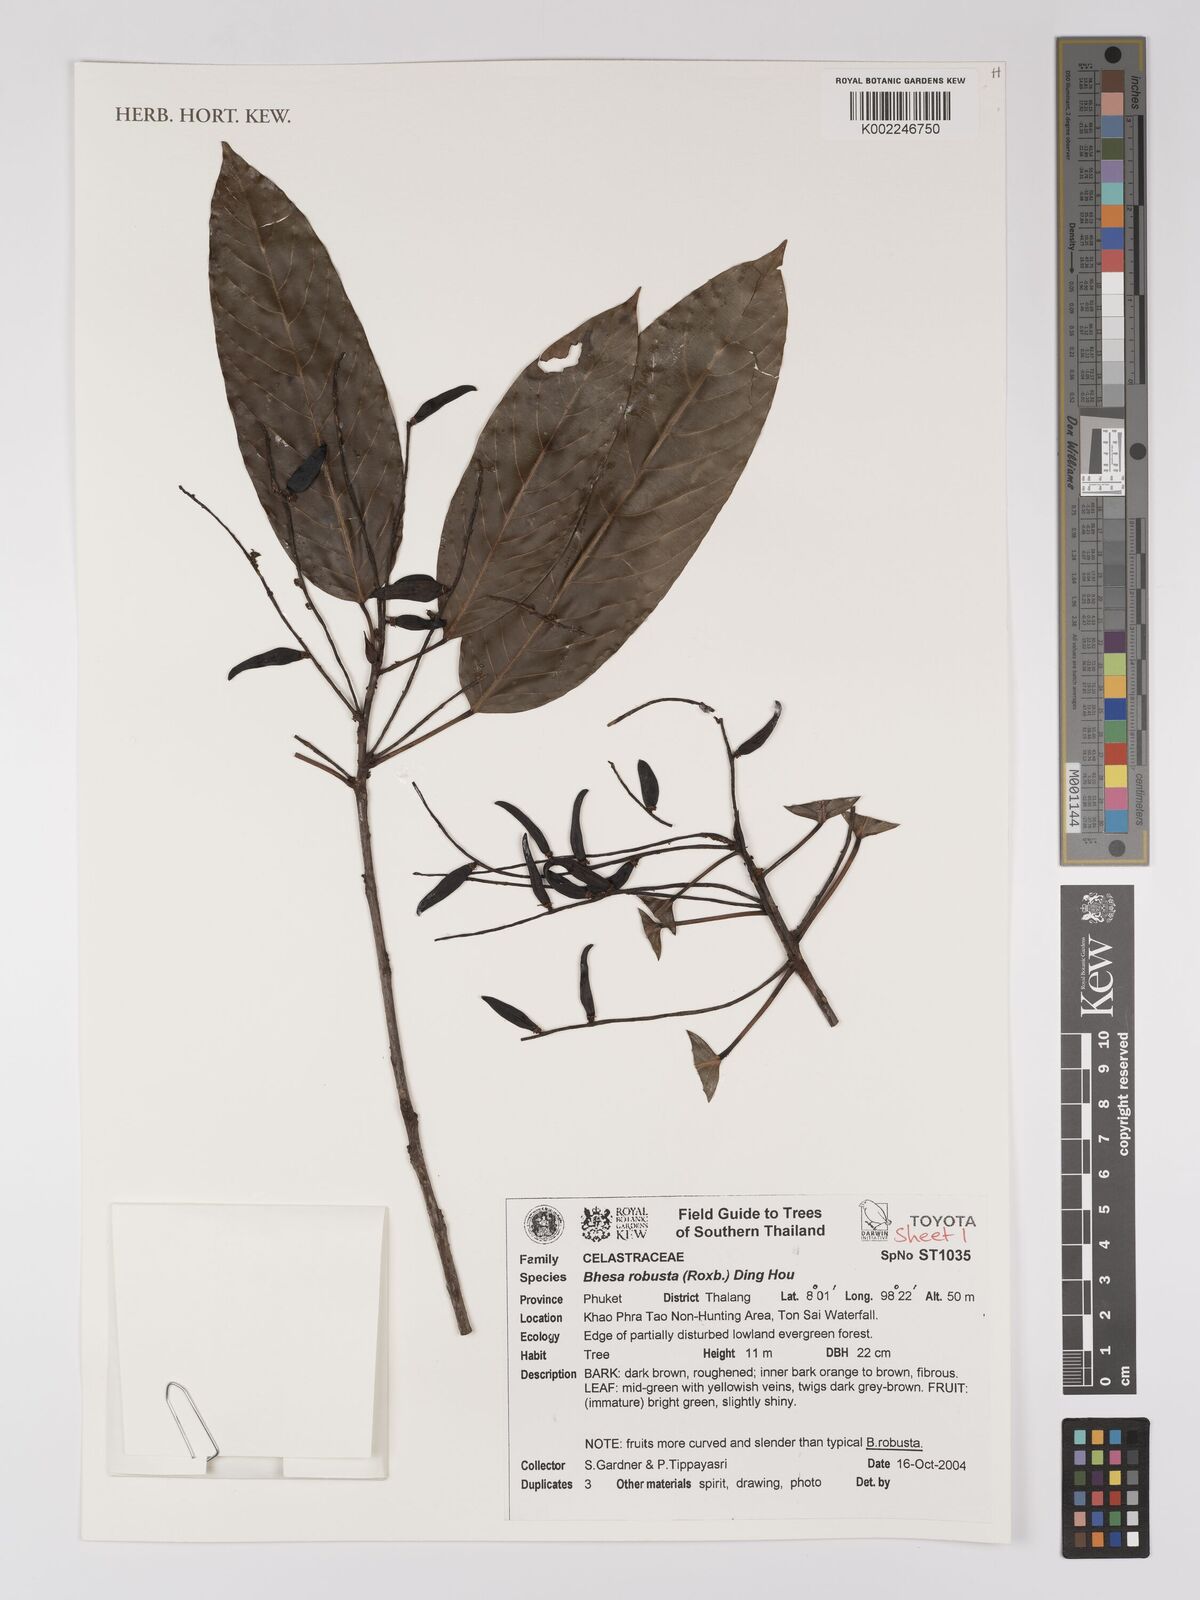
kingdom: Plantae
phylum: Tracheophyta
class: Magnoliopsida
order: Malpighiales
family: Centroplacaceae
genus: Bhesa
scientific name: Bhesa robusta
